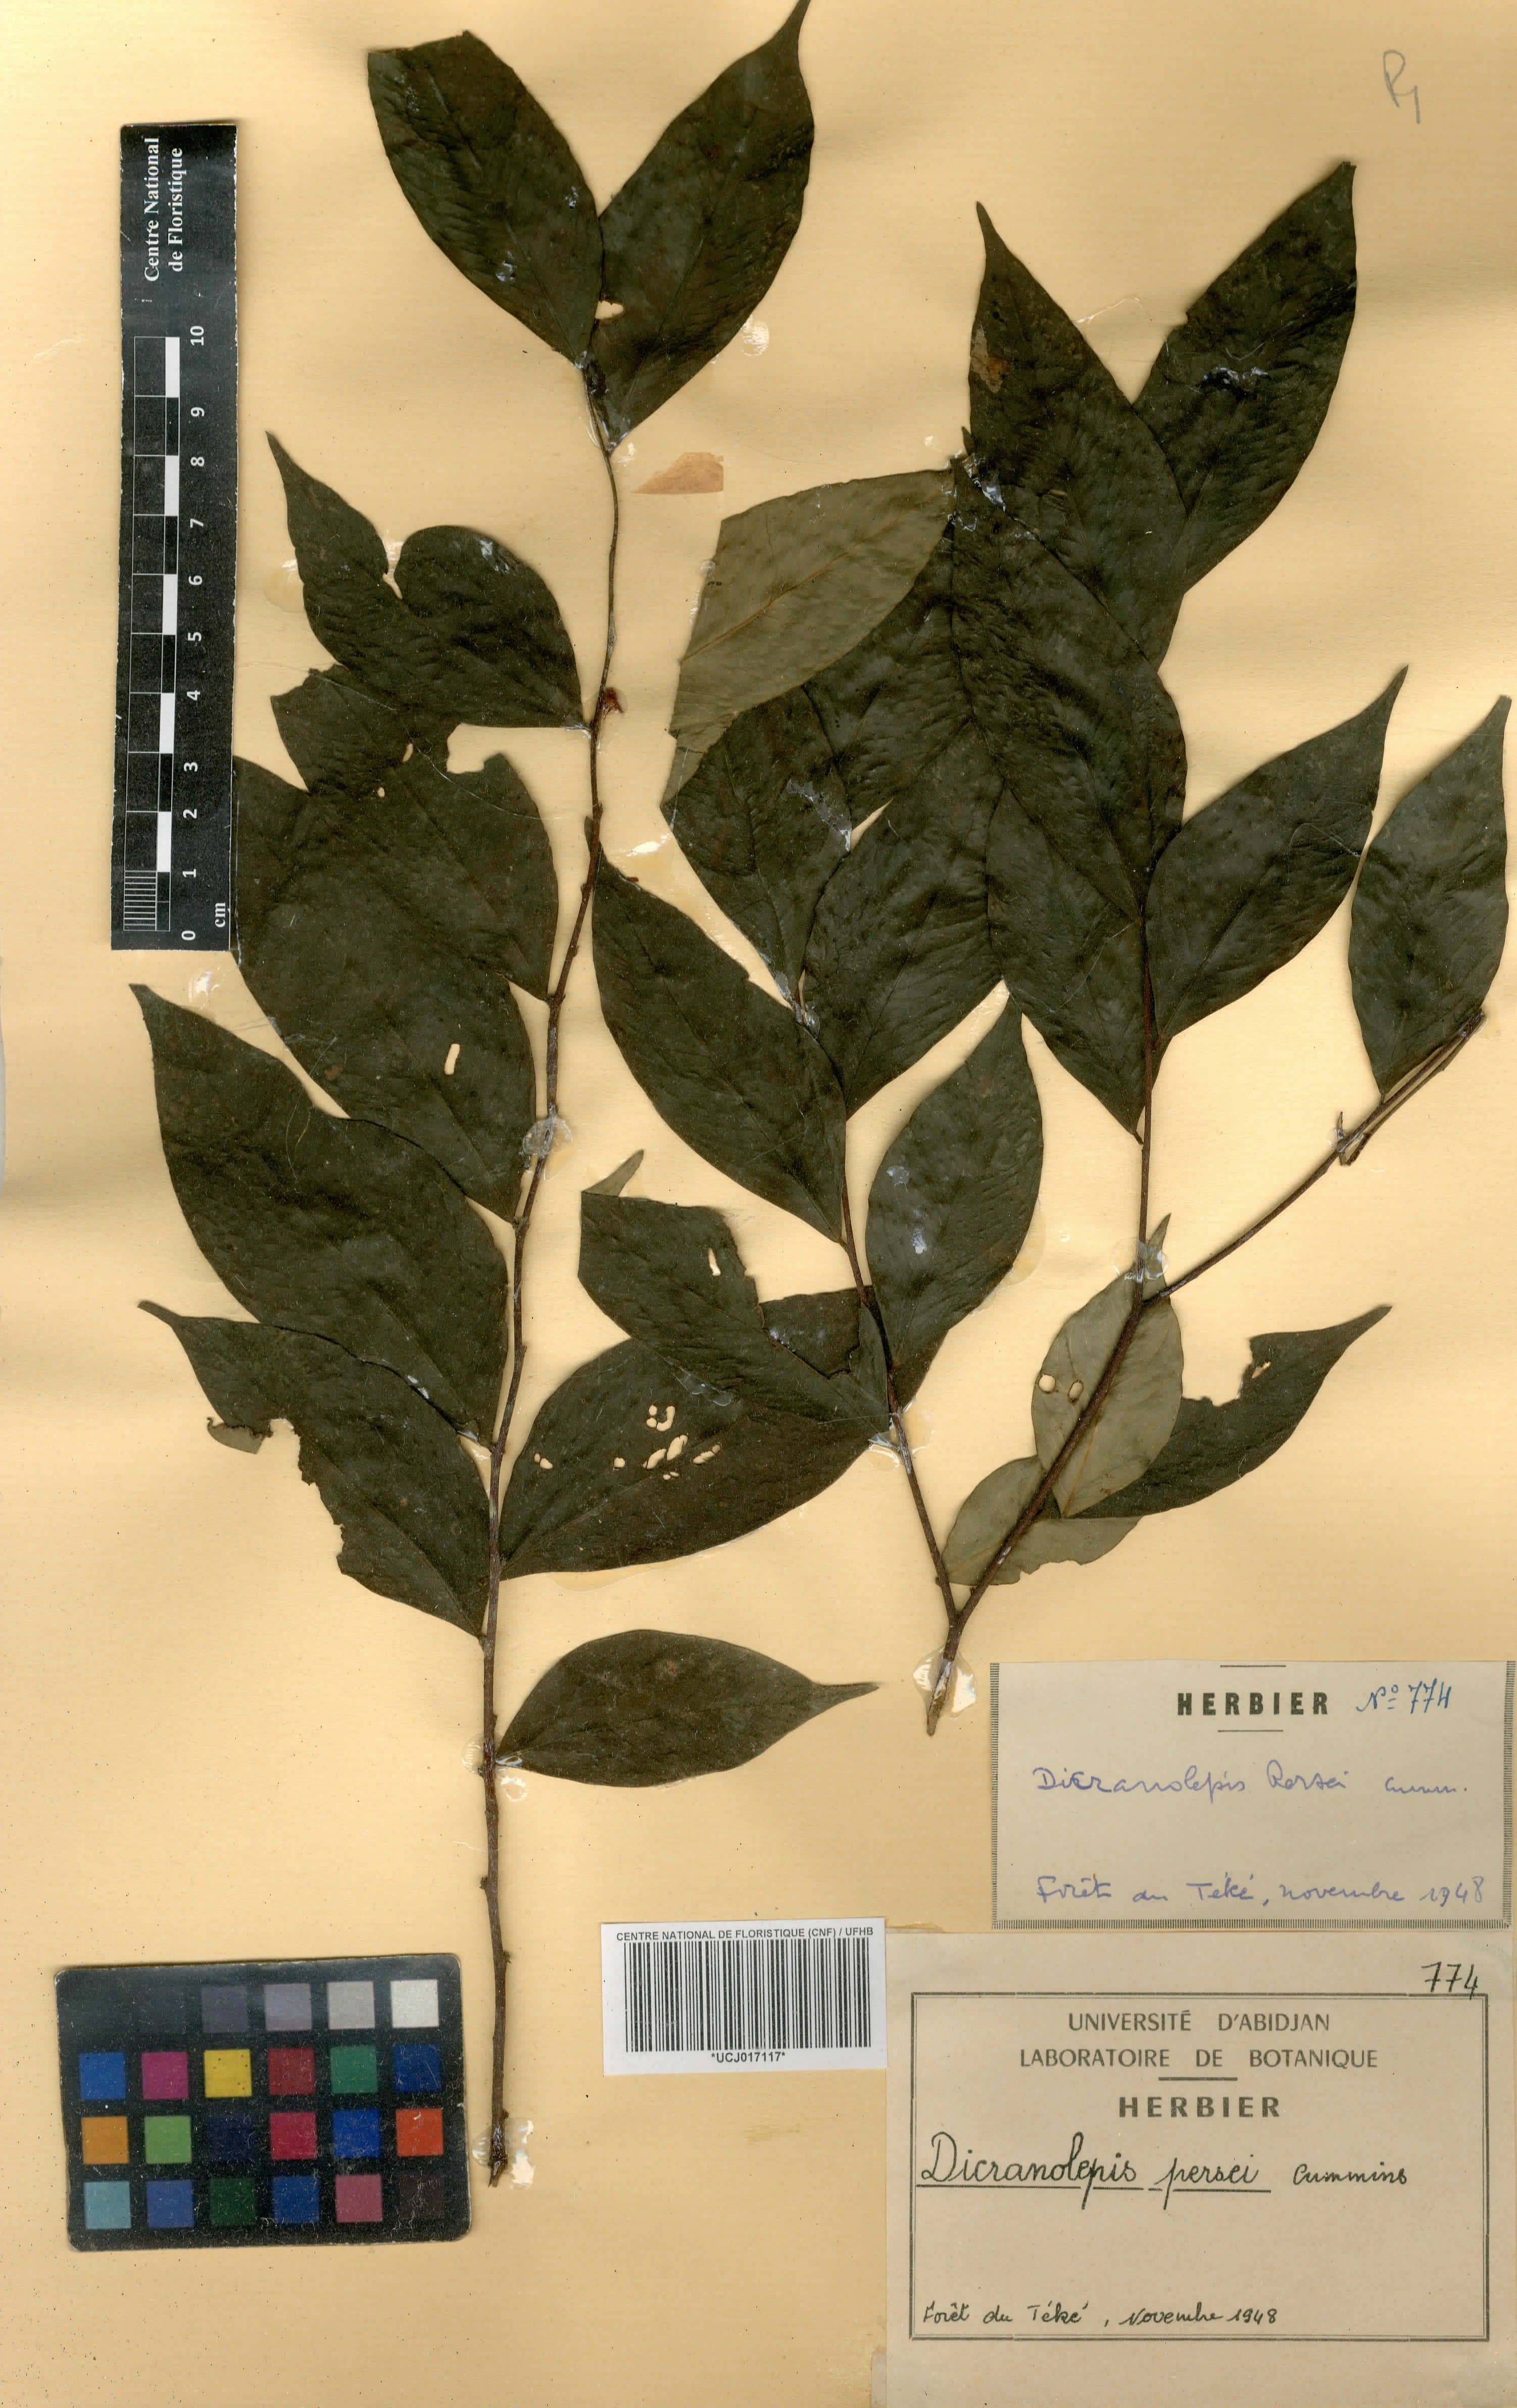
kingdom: Plantae
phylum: Tracheophyta
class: Magnoliopsida
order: Malvales
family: Thymelaeaceae
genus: Dicranolepis
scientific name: Dicranolepis persei
